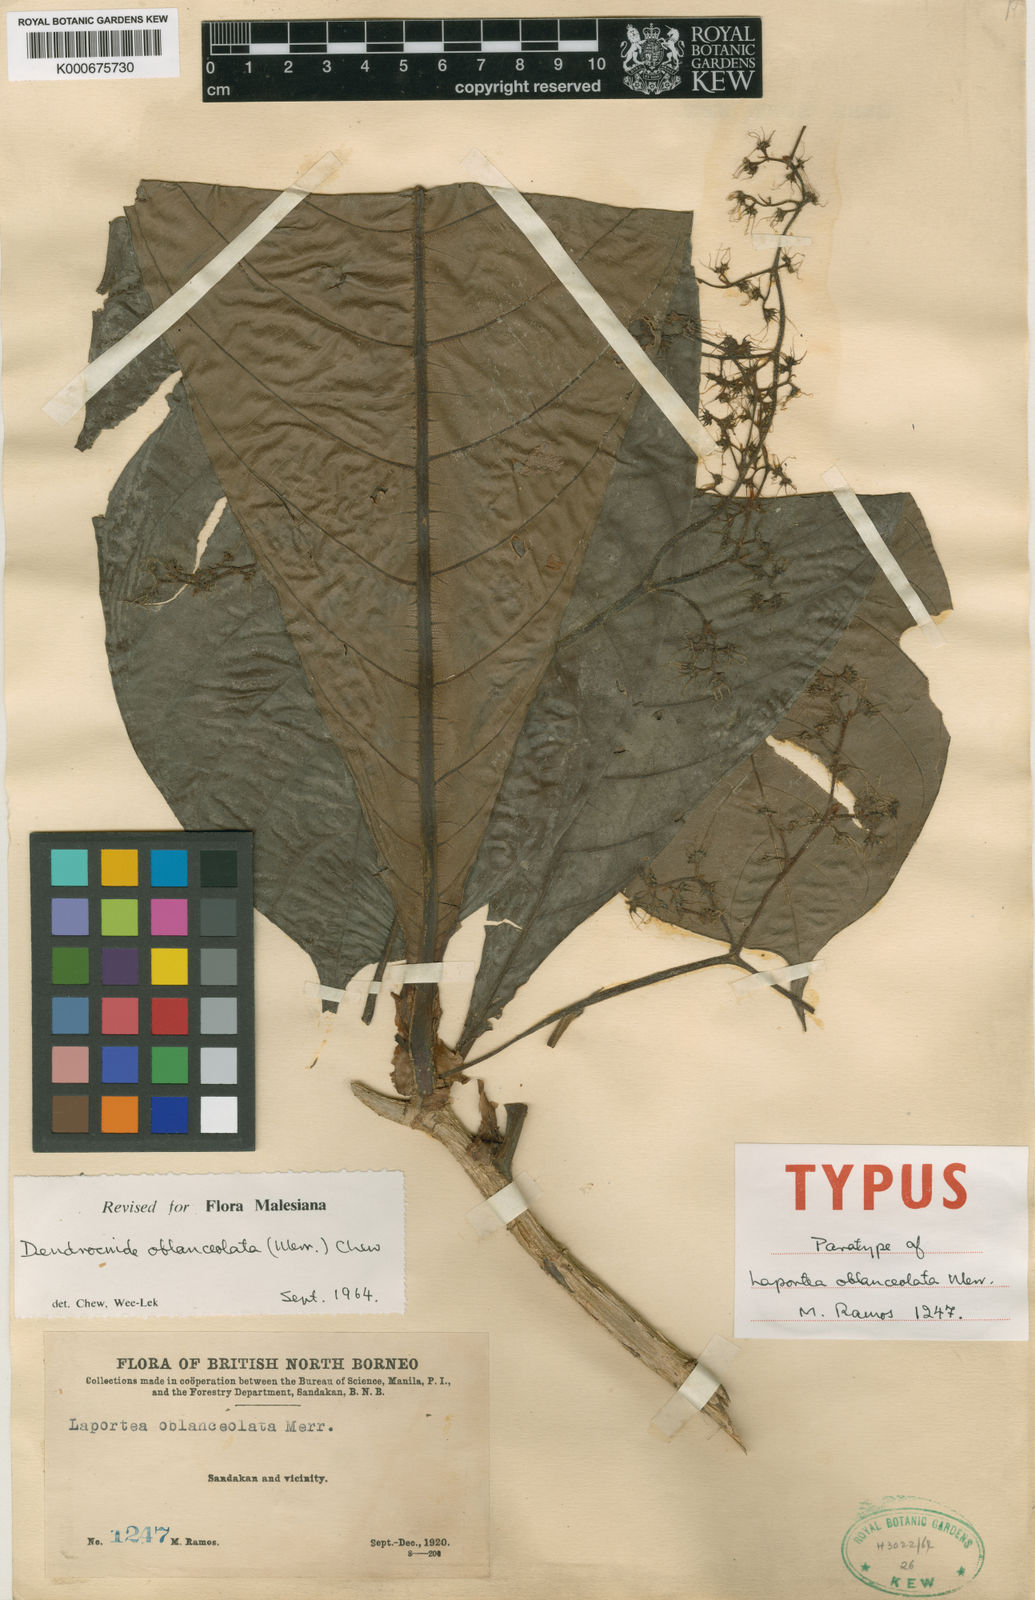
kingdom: Plantae
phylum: Tracheophyta
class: Magnoliopsida
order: Rosales
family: Urticaceae
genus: Dendrocnide
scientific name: Dendrocnide oblanceolata
